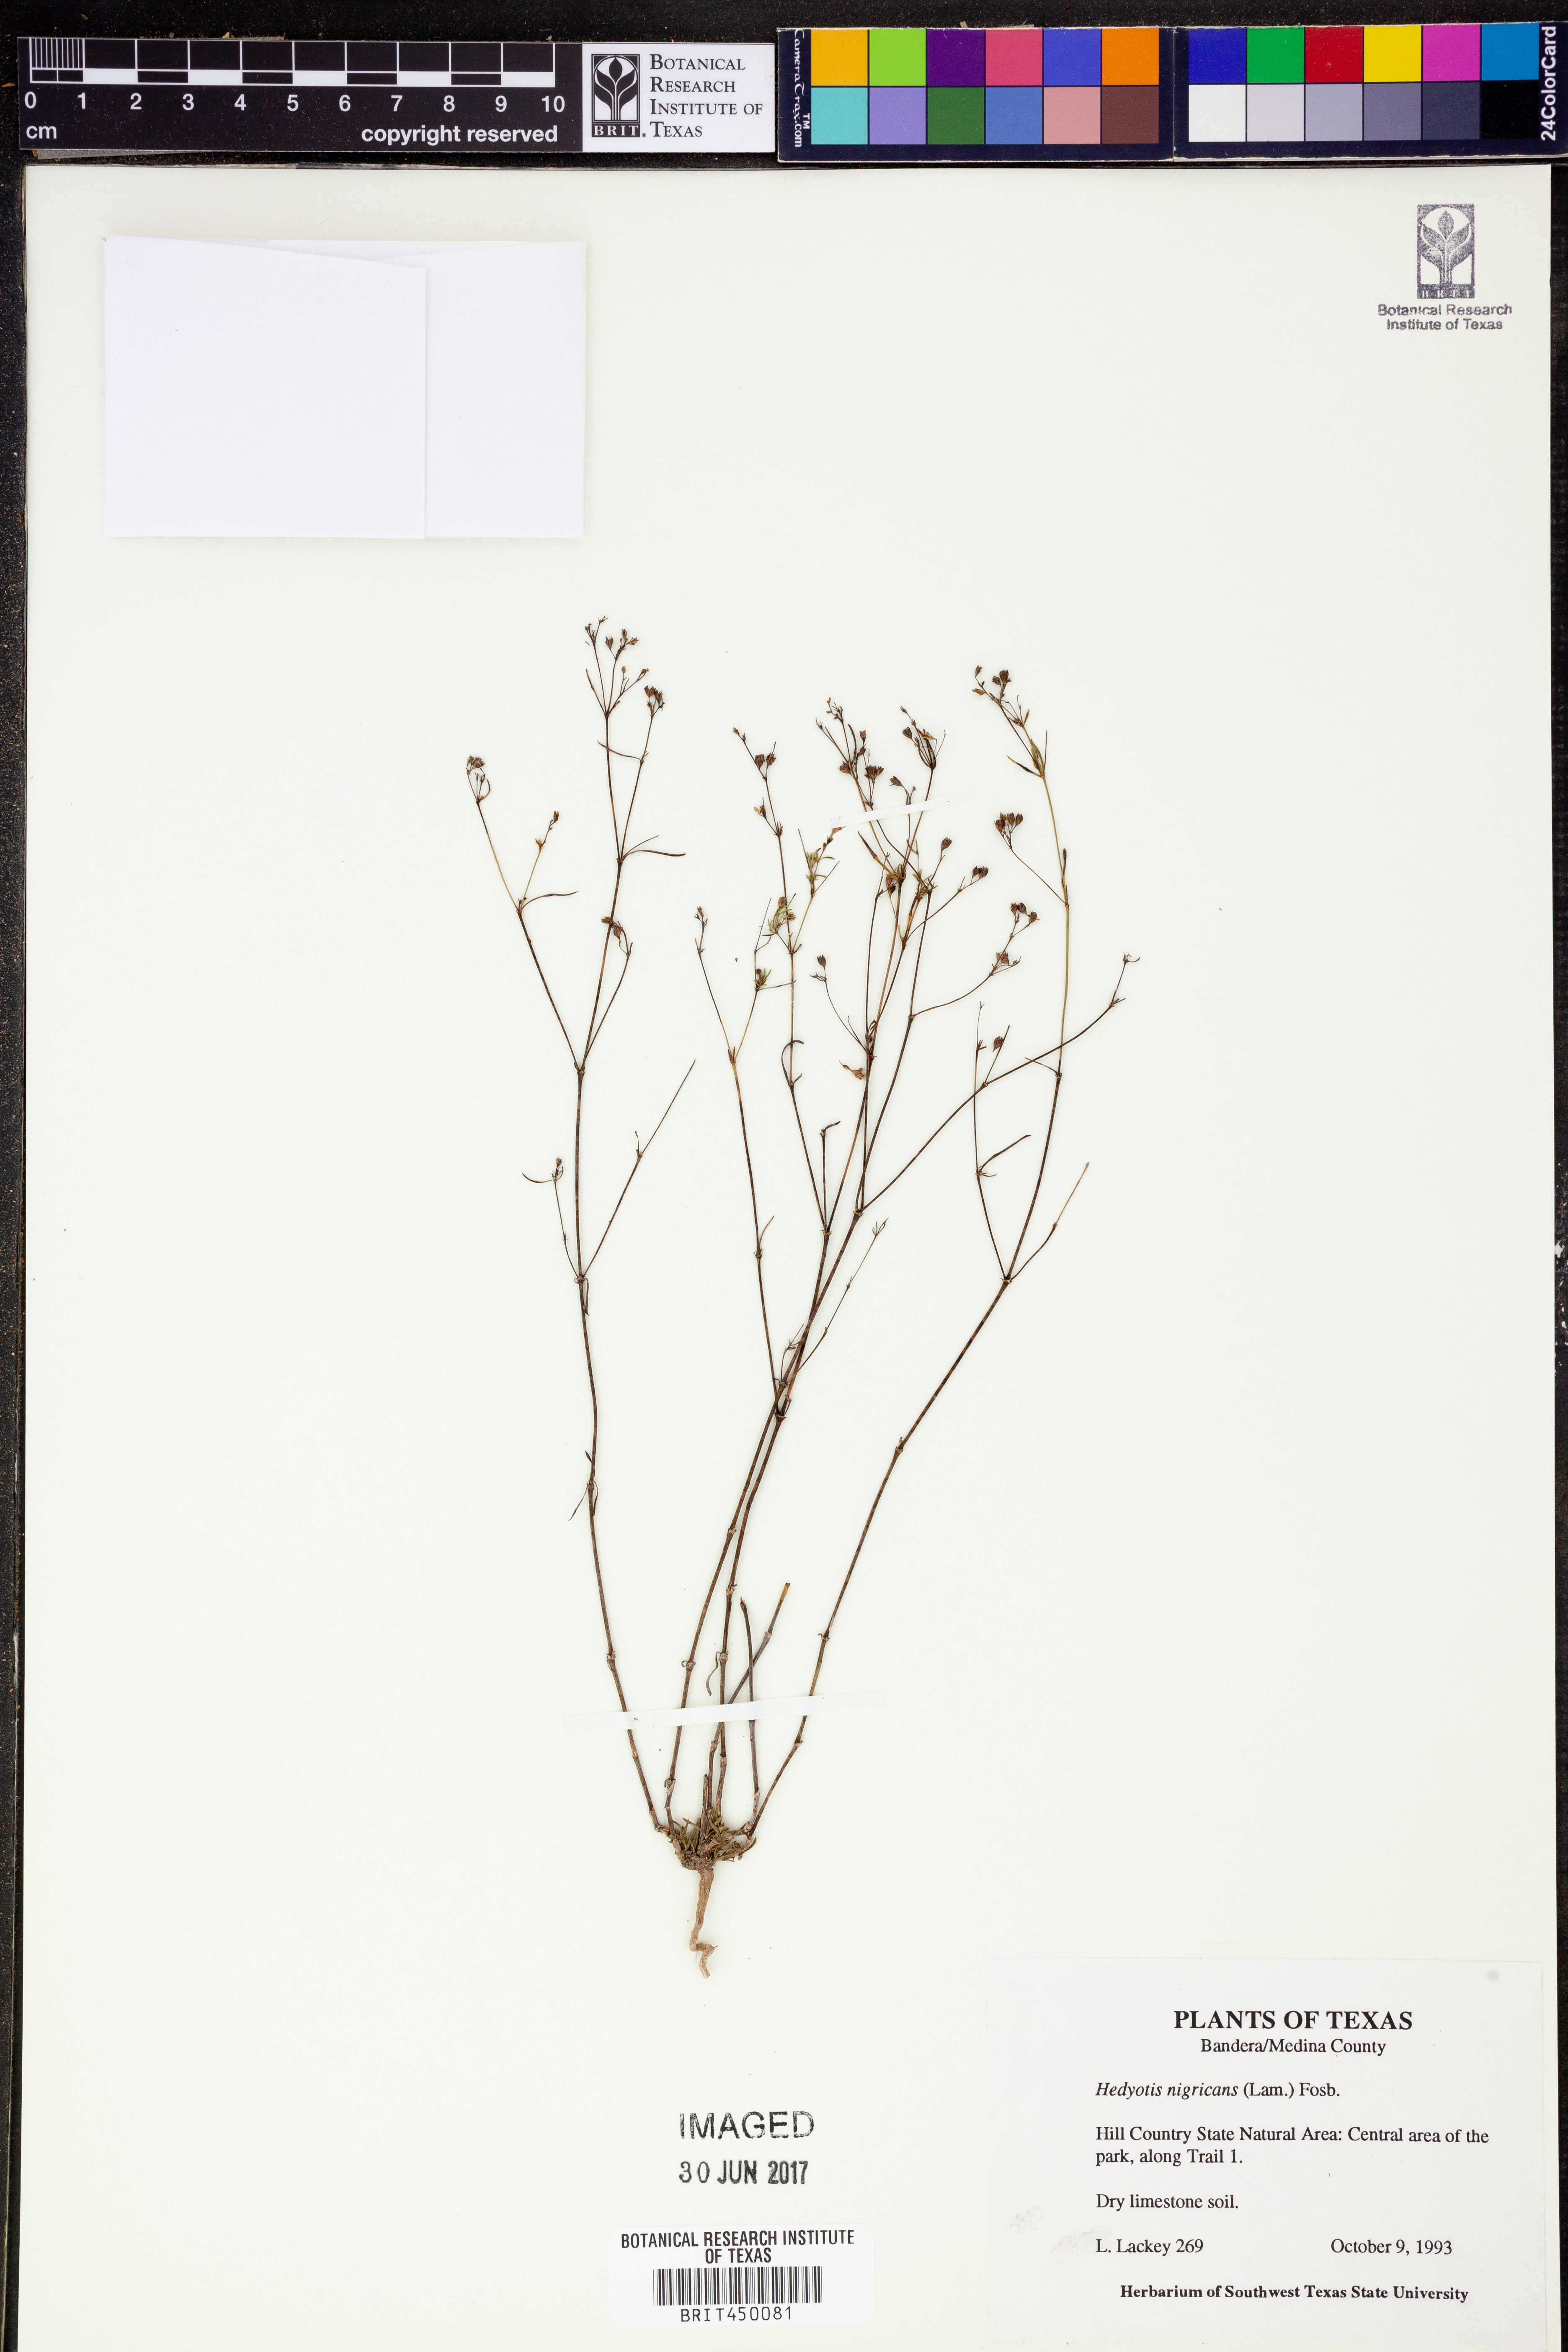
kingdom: Plantae
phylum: Tracheophyta
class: Magnoliopsida
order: Gentianales
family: Rubiaceae
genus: Stenaria
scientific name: Stenaria nigricans
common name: Diamondflowers
